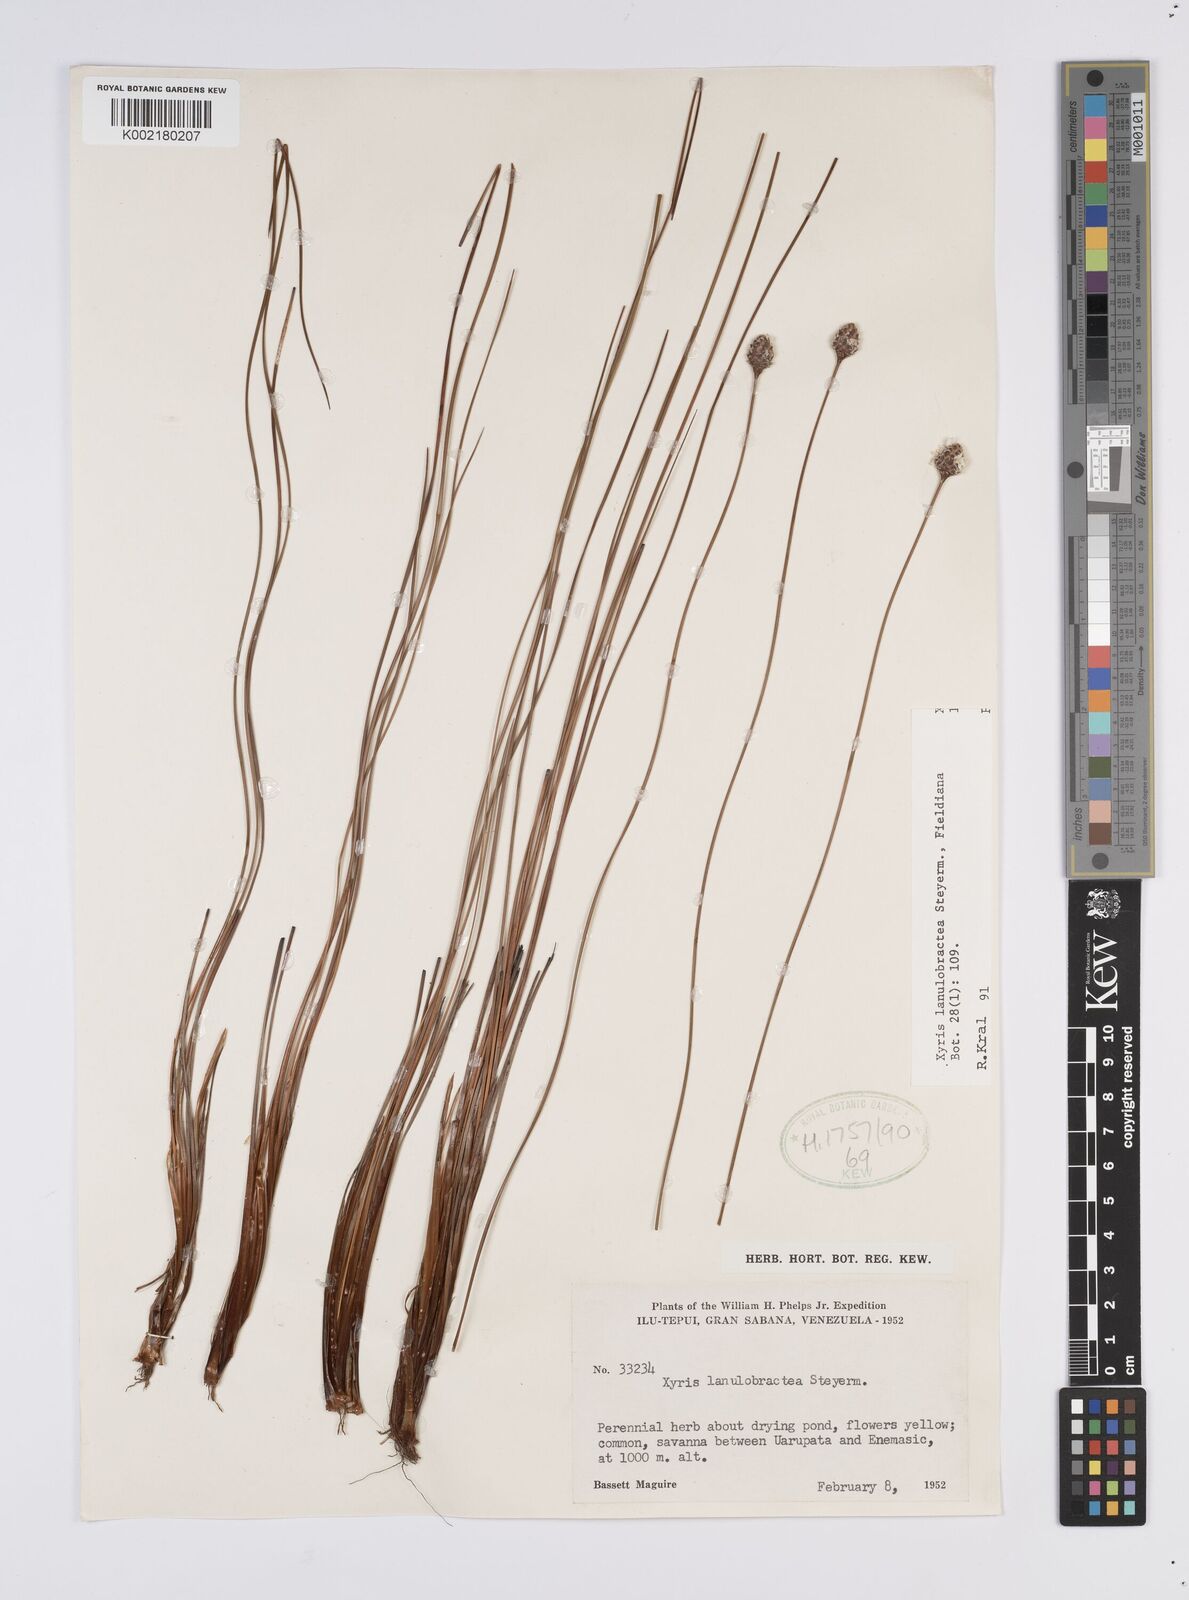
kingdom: Plantae
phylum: Tracheophyta
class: Liliopsida
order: Poales
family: Xyridaceae
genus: Xyris
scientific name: Xyris lanulobractea
